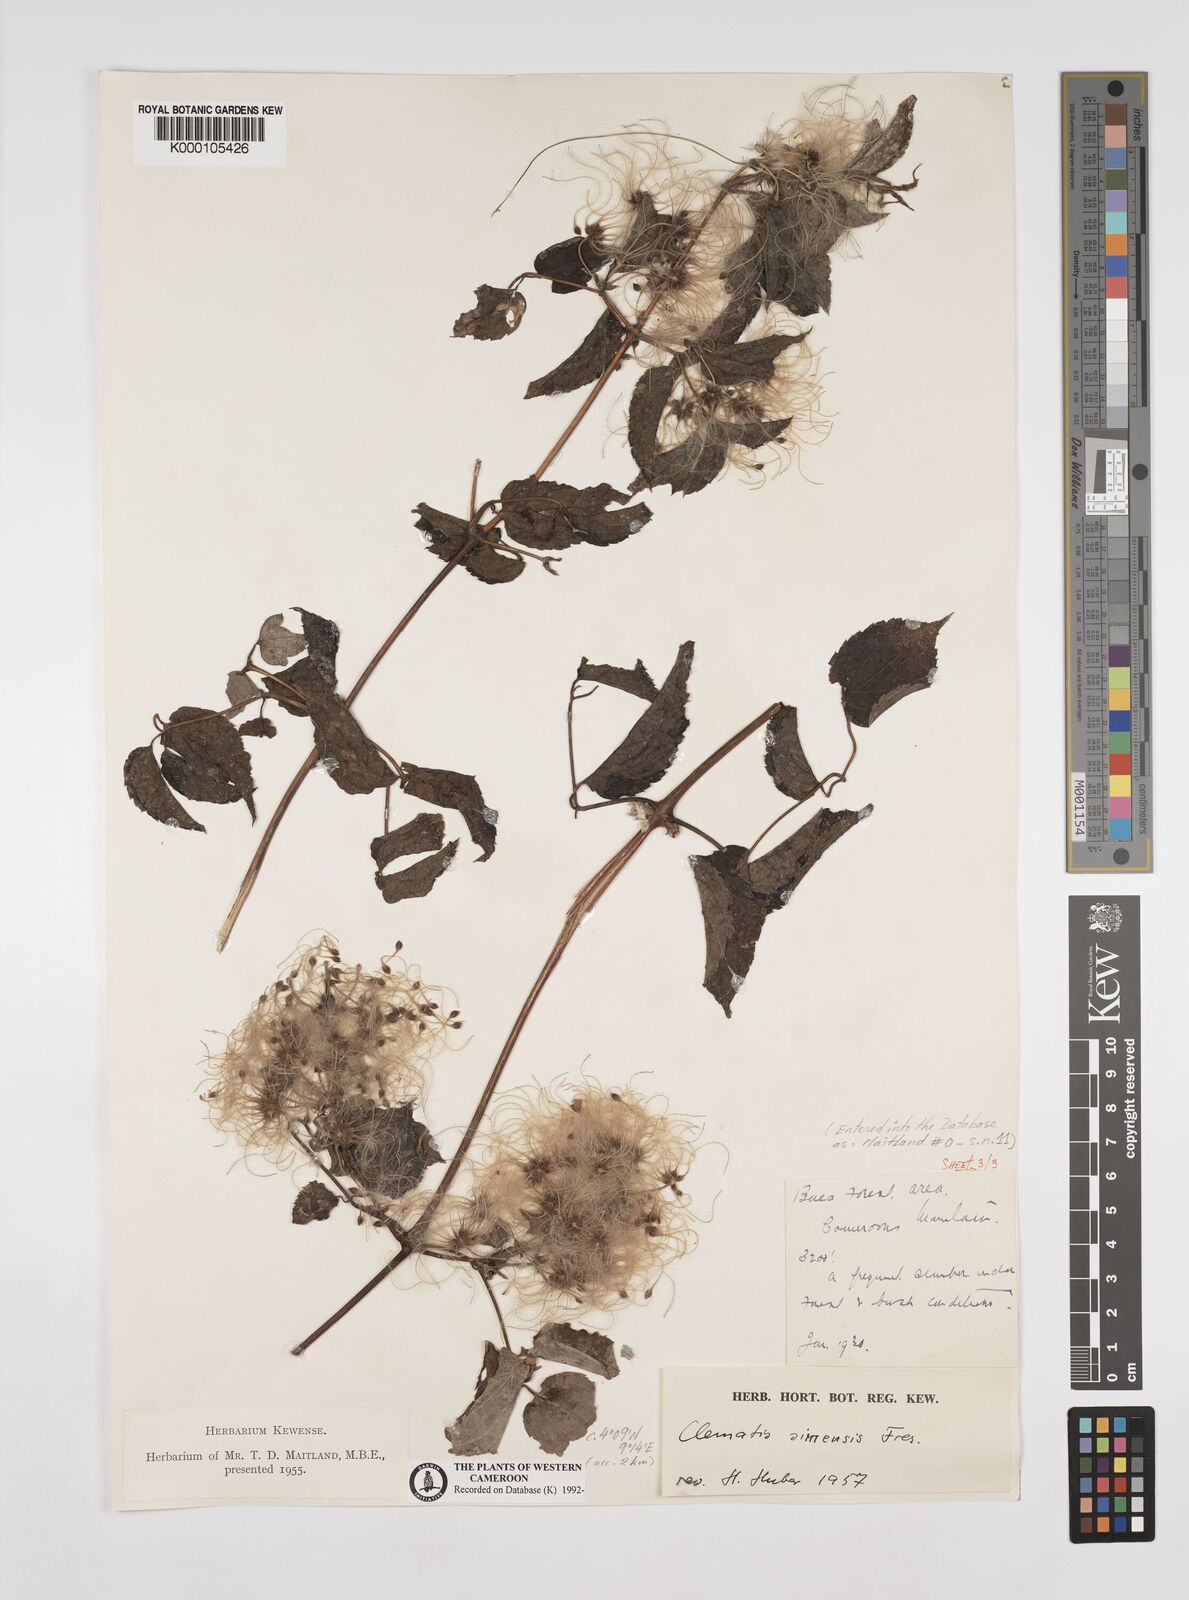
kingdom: Plantae
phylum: Tracheophyta
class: Magnoliopsida
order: Ranunculales
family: Ranunculaceae
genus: Clematis
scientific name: Clematis simensis
